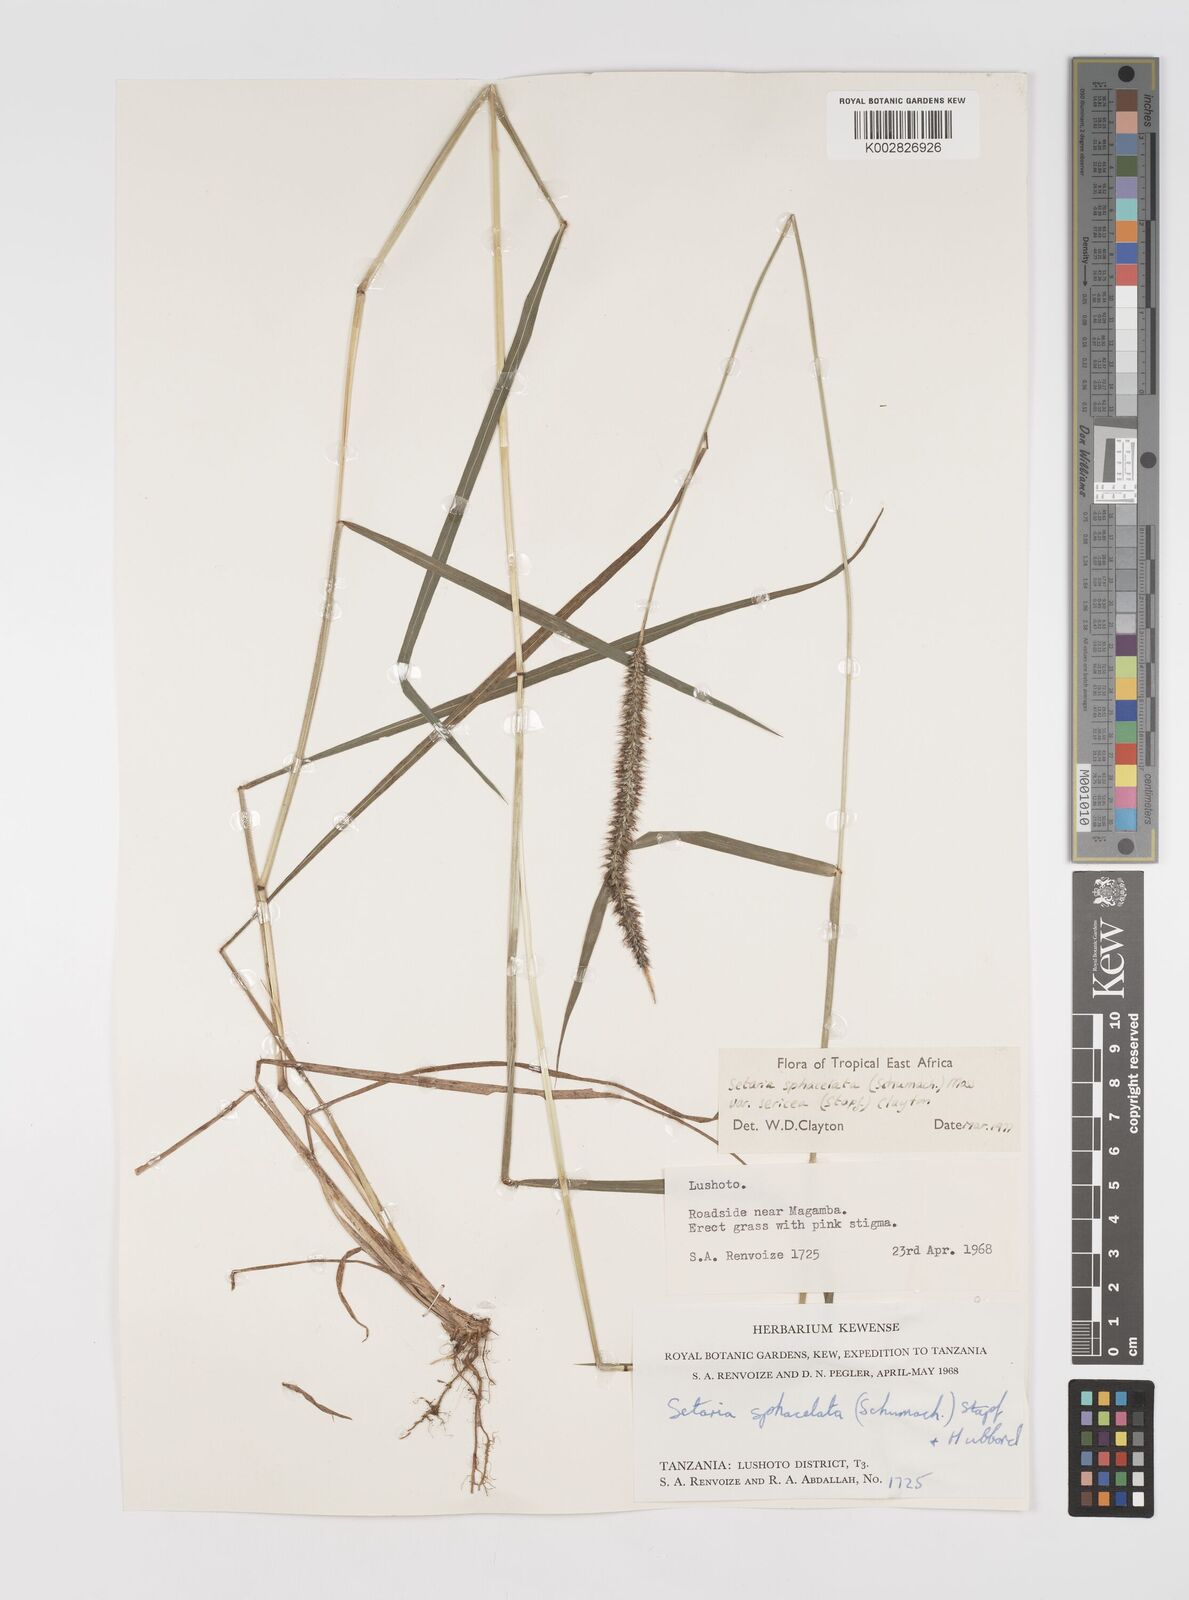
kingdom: Plantae
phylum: Tracheophyta
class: Liliopsida
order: Poales
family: Poaceae
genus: Setaria
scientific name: Setaria sphacelata
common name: African bristlegrass
